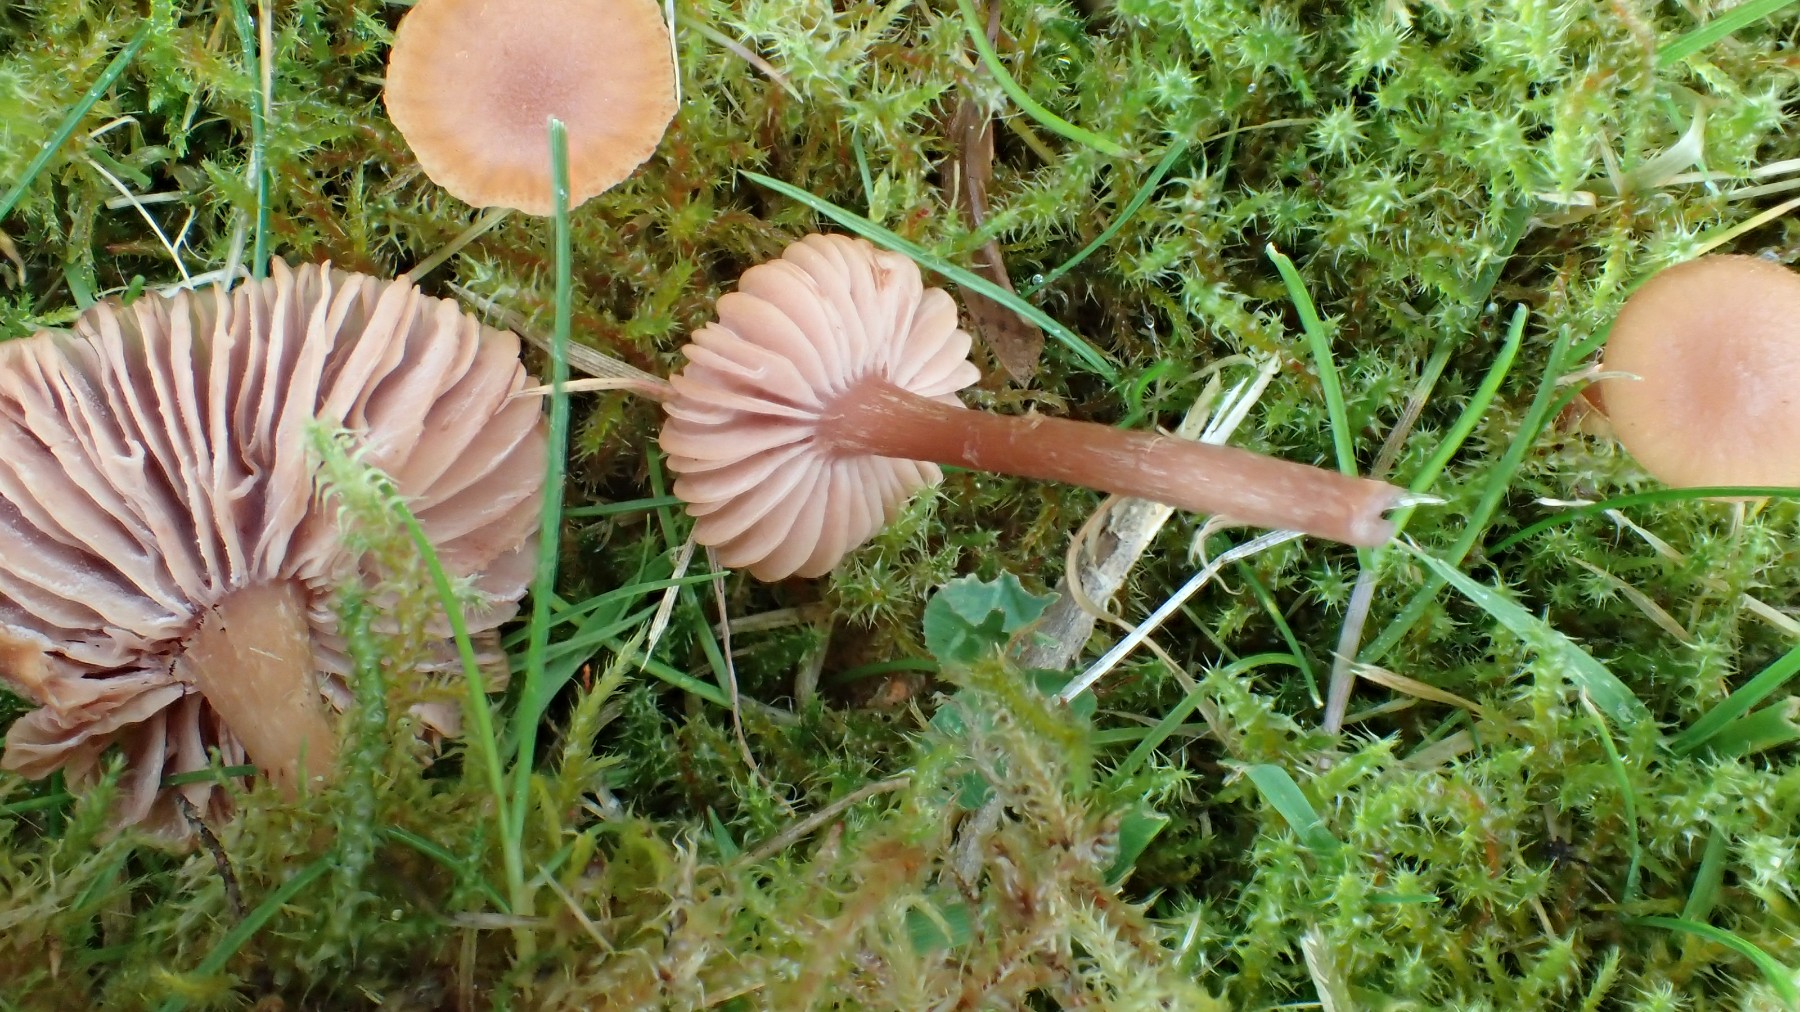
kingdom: Fungi
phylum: Basidiomycota
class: Agaricomycetes
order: Agaricales
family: Hydnangiaceae
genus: Laccaria
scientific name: Laccaria laccata
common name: rød ametysthat
